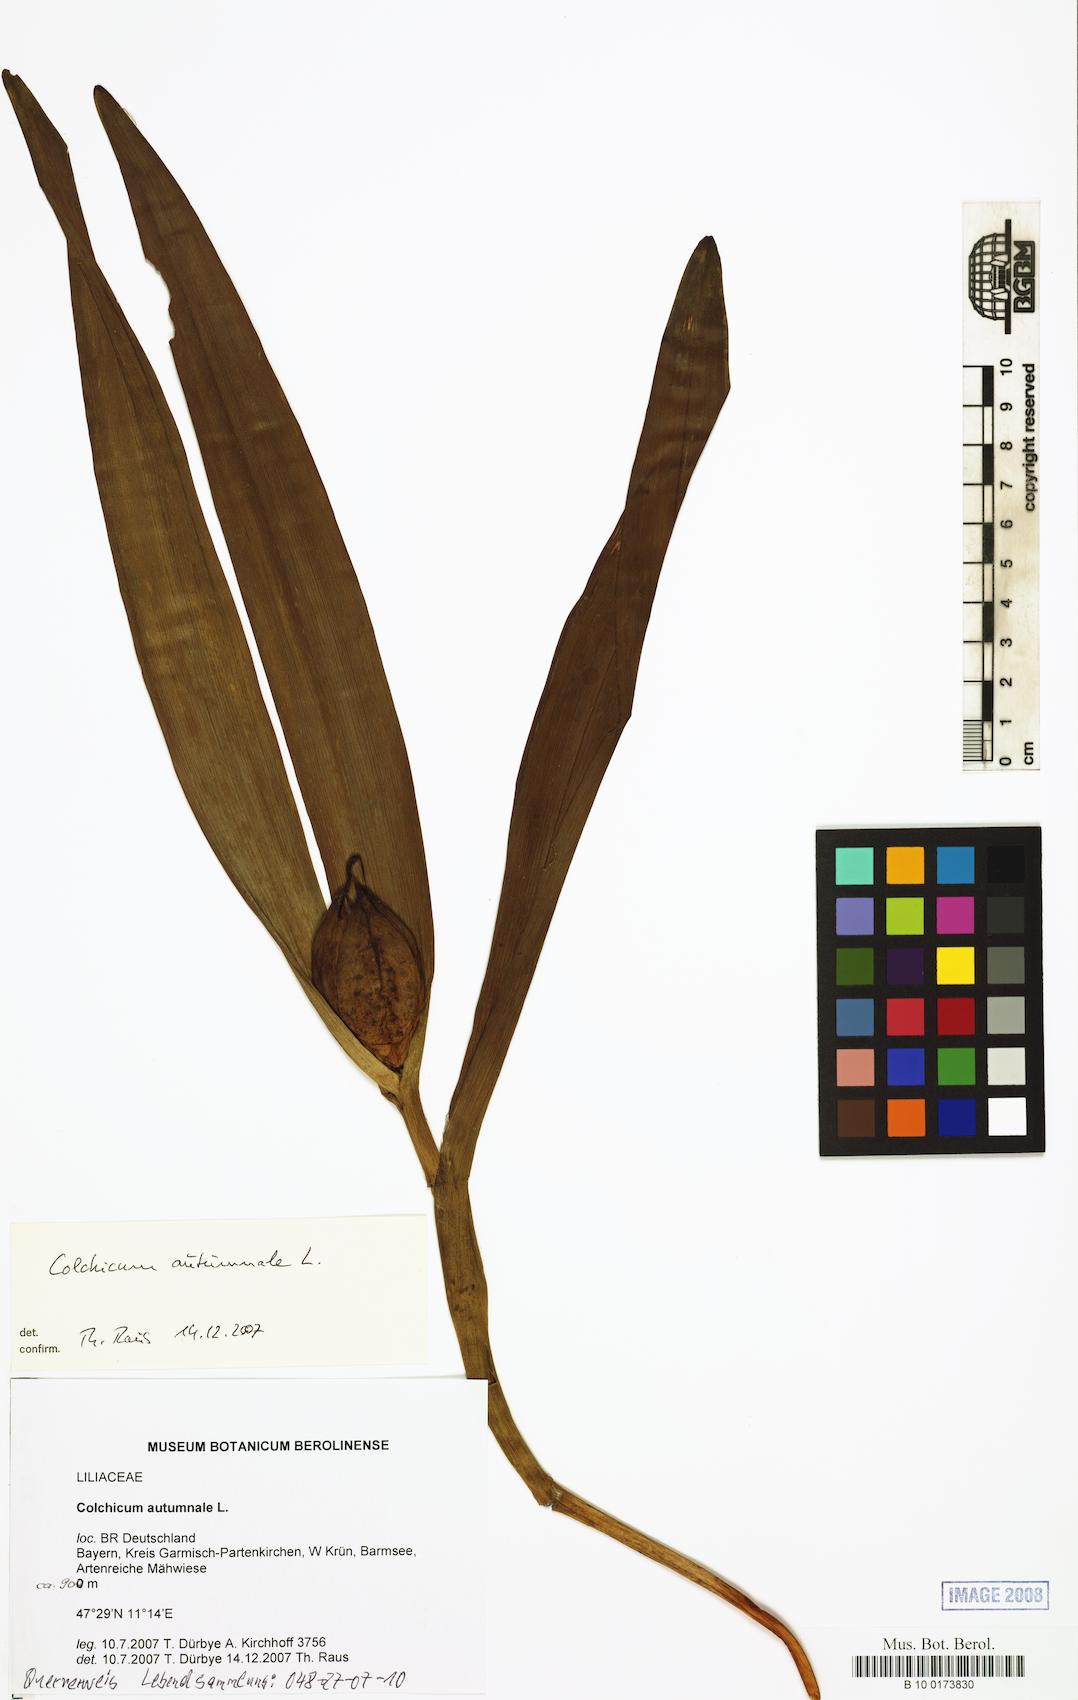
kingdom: Plantae
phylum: Tracheophyta
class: Liliopsida
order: Liliales
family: Colchicaceae
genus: Colchicum
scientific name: Colchicum autumnale
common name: Autumn crocus
